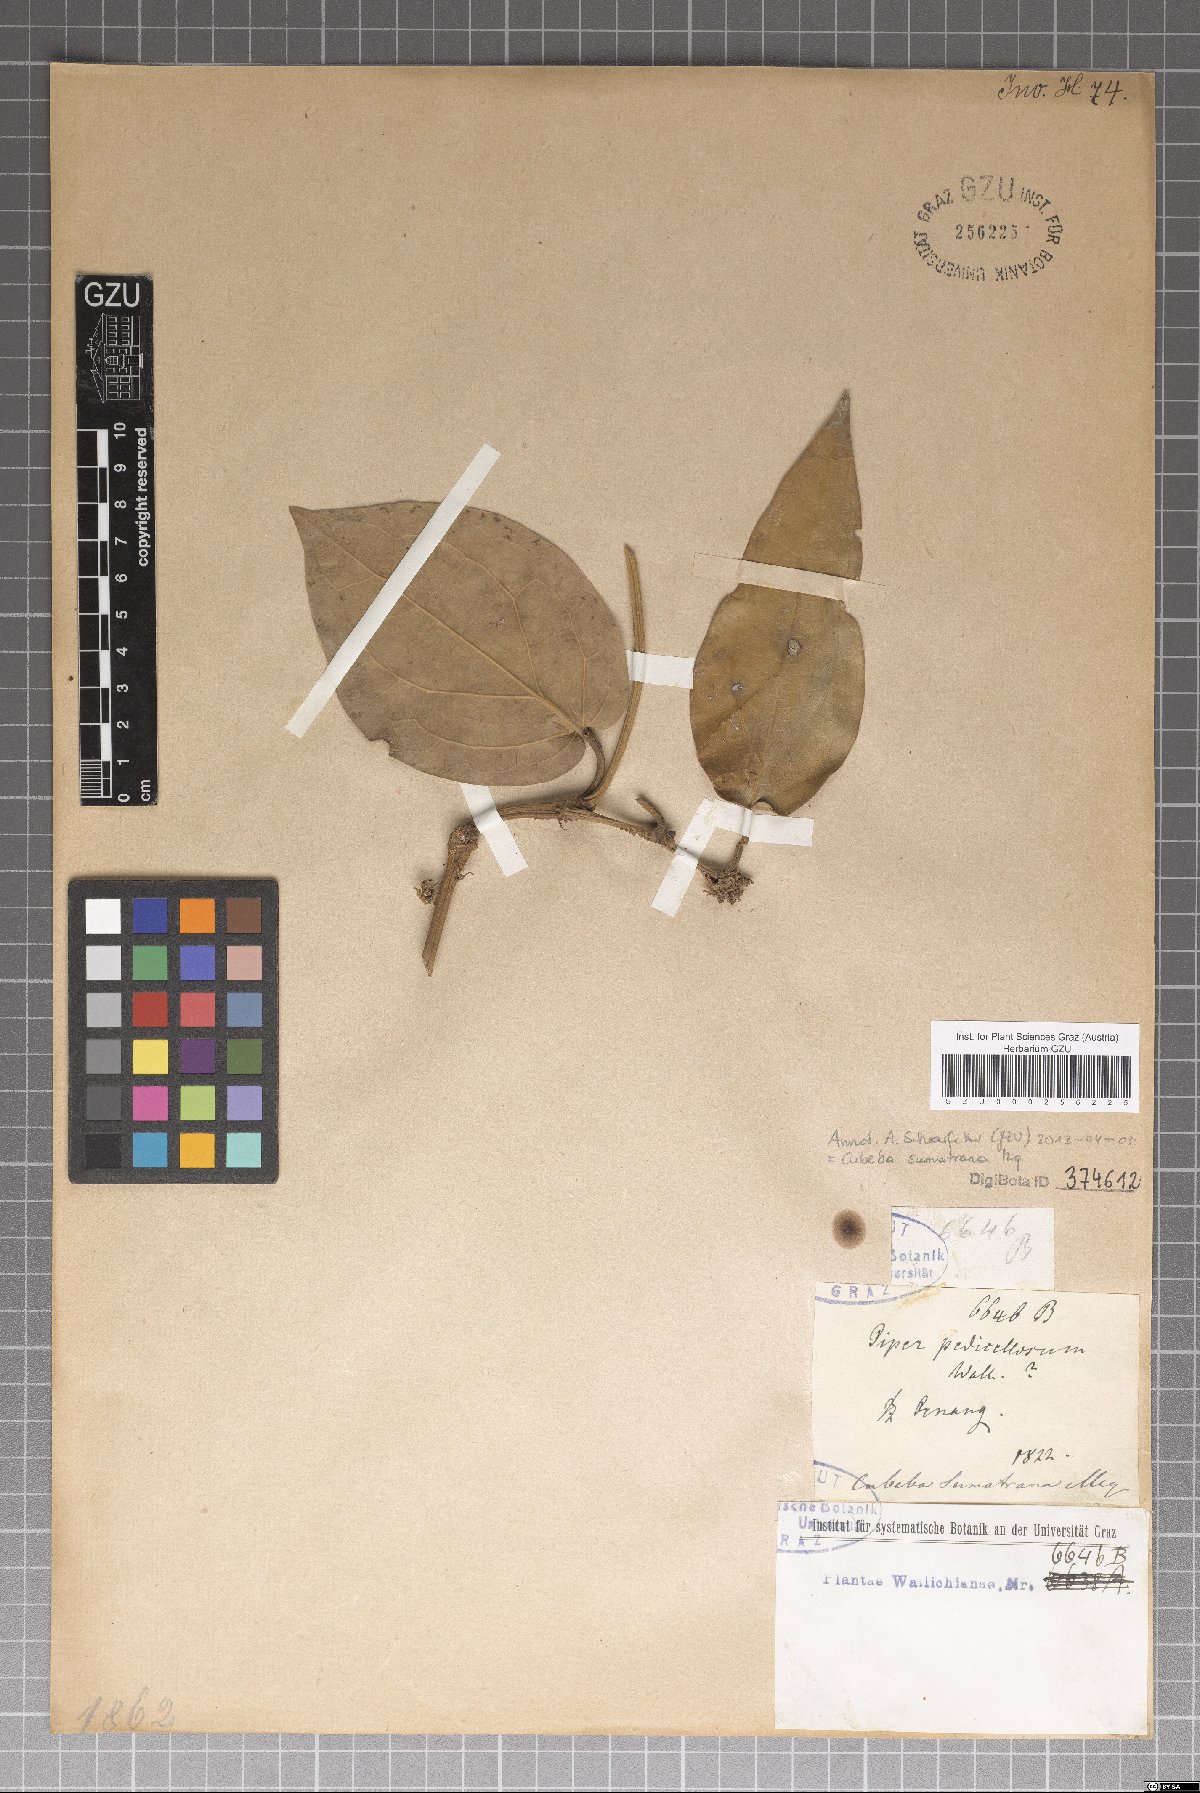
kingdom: Plantae
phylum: Tracheophyta
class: Magnoliopsida
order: Piperales
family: Piperaceae
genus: Piper
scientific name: Piper ribesioides
